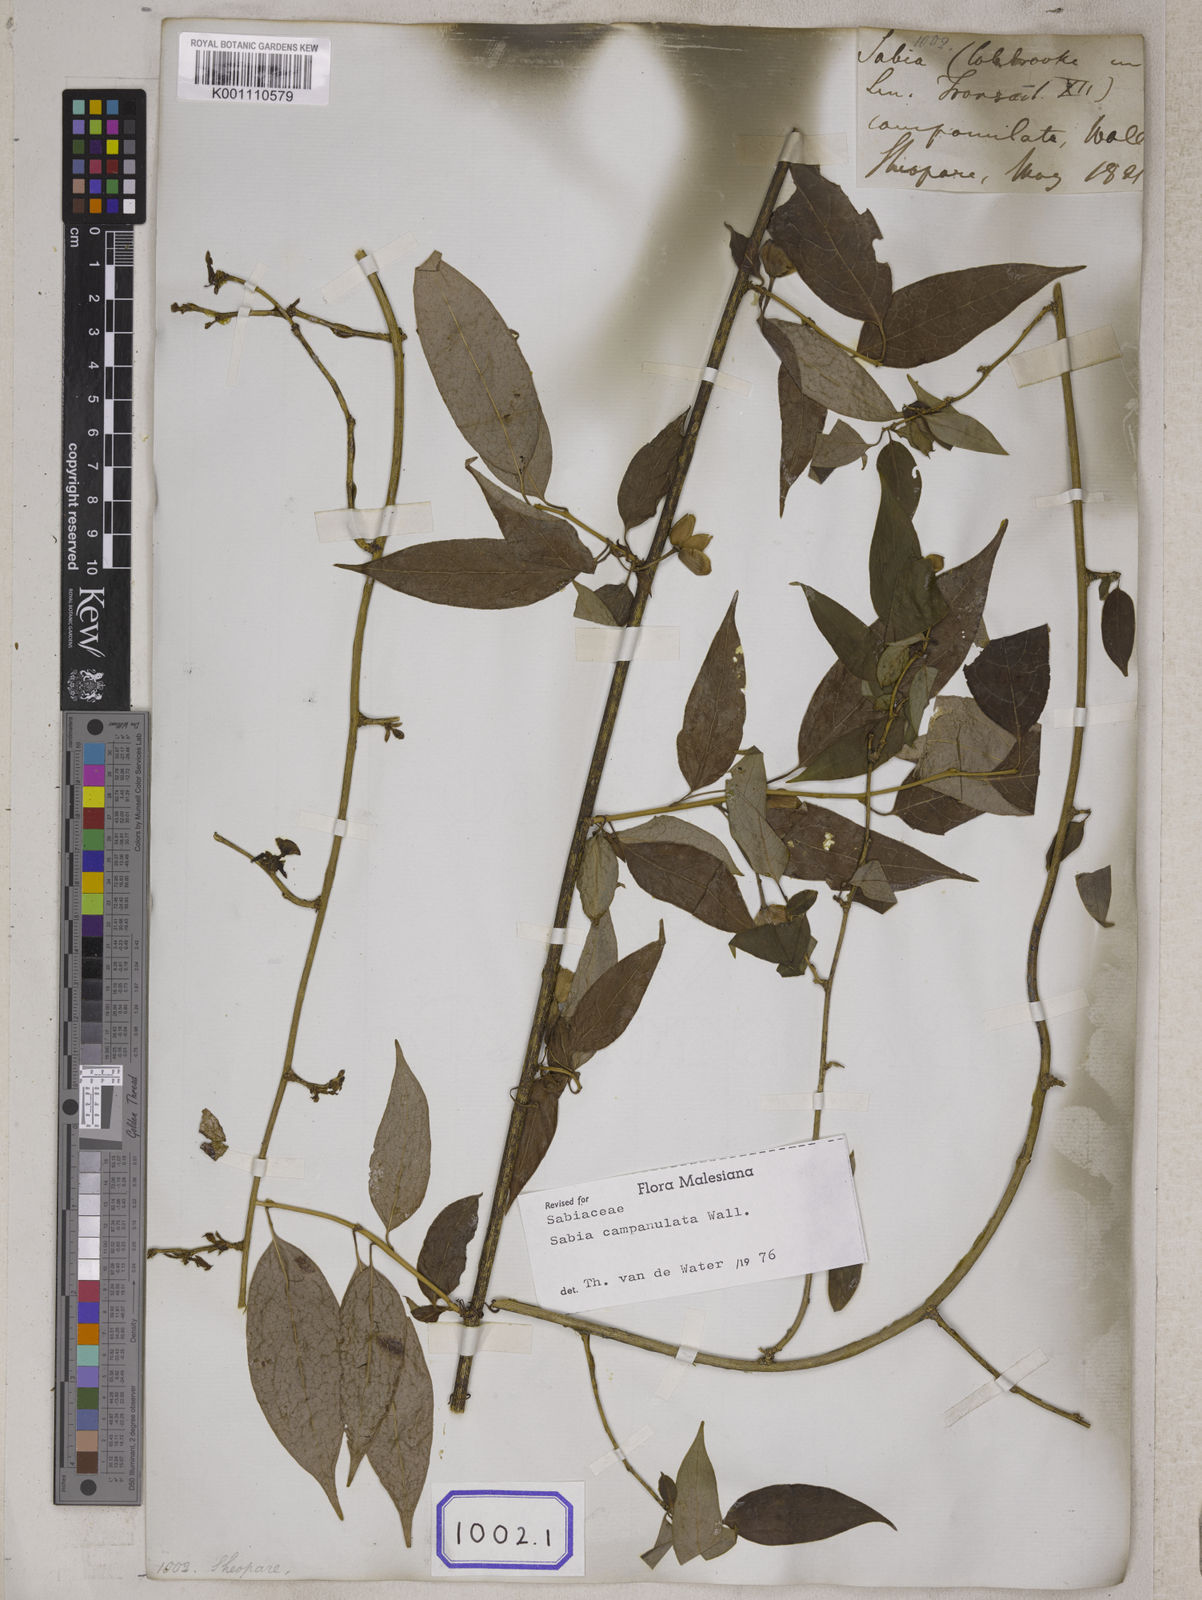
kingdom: Plantae
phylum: Tracheophyta
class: Magnoliopsida
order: Proteales
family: Sabiaceae
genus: Sabia
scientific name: Sabia campanulata
